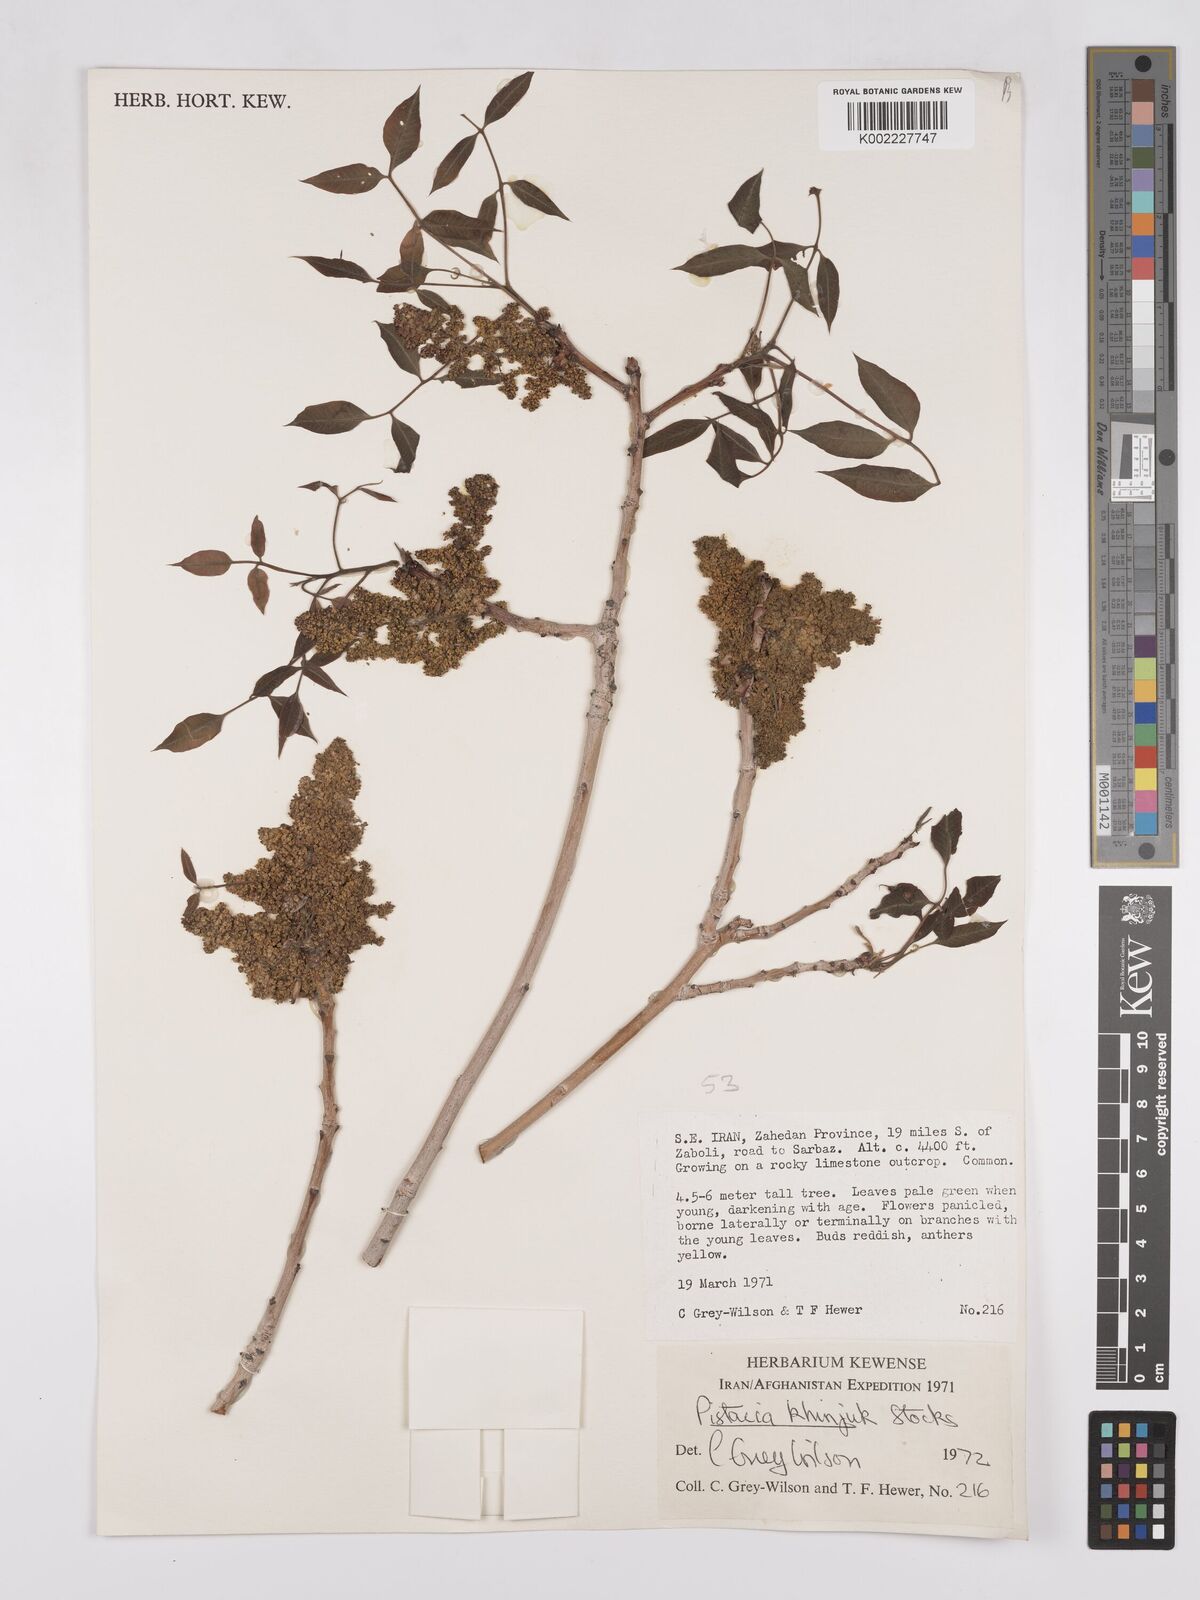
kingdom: Plantae
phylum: Tracheophyta
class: Magnoliopsida
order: Sapindales
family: Anacardiaceae
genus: Pistacia
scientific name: Pistacia khinjuk
